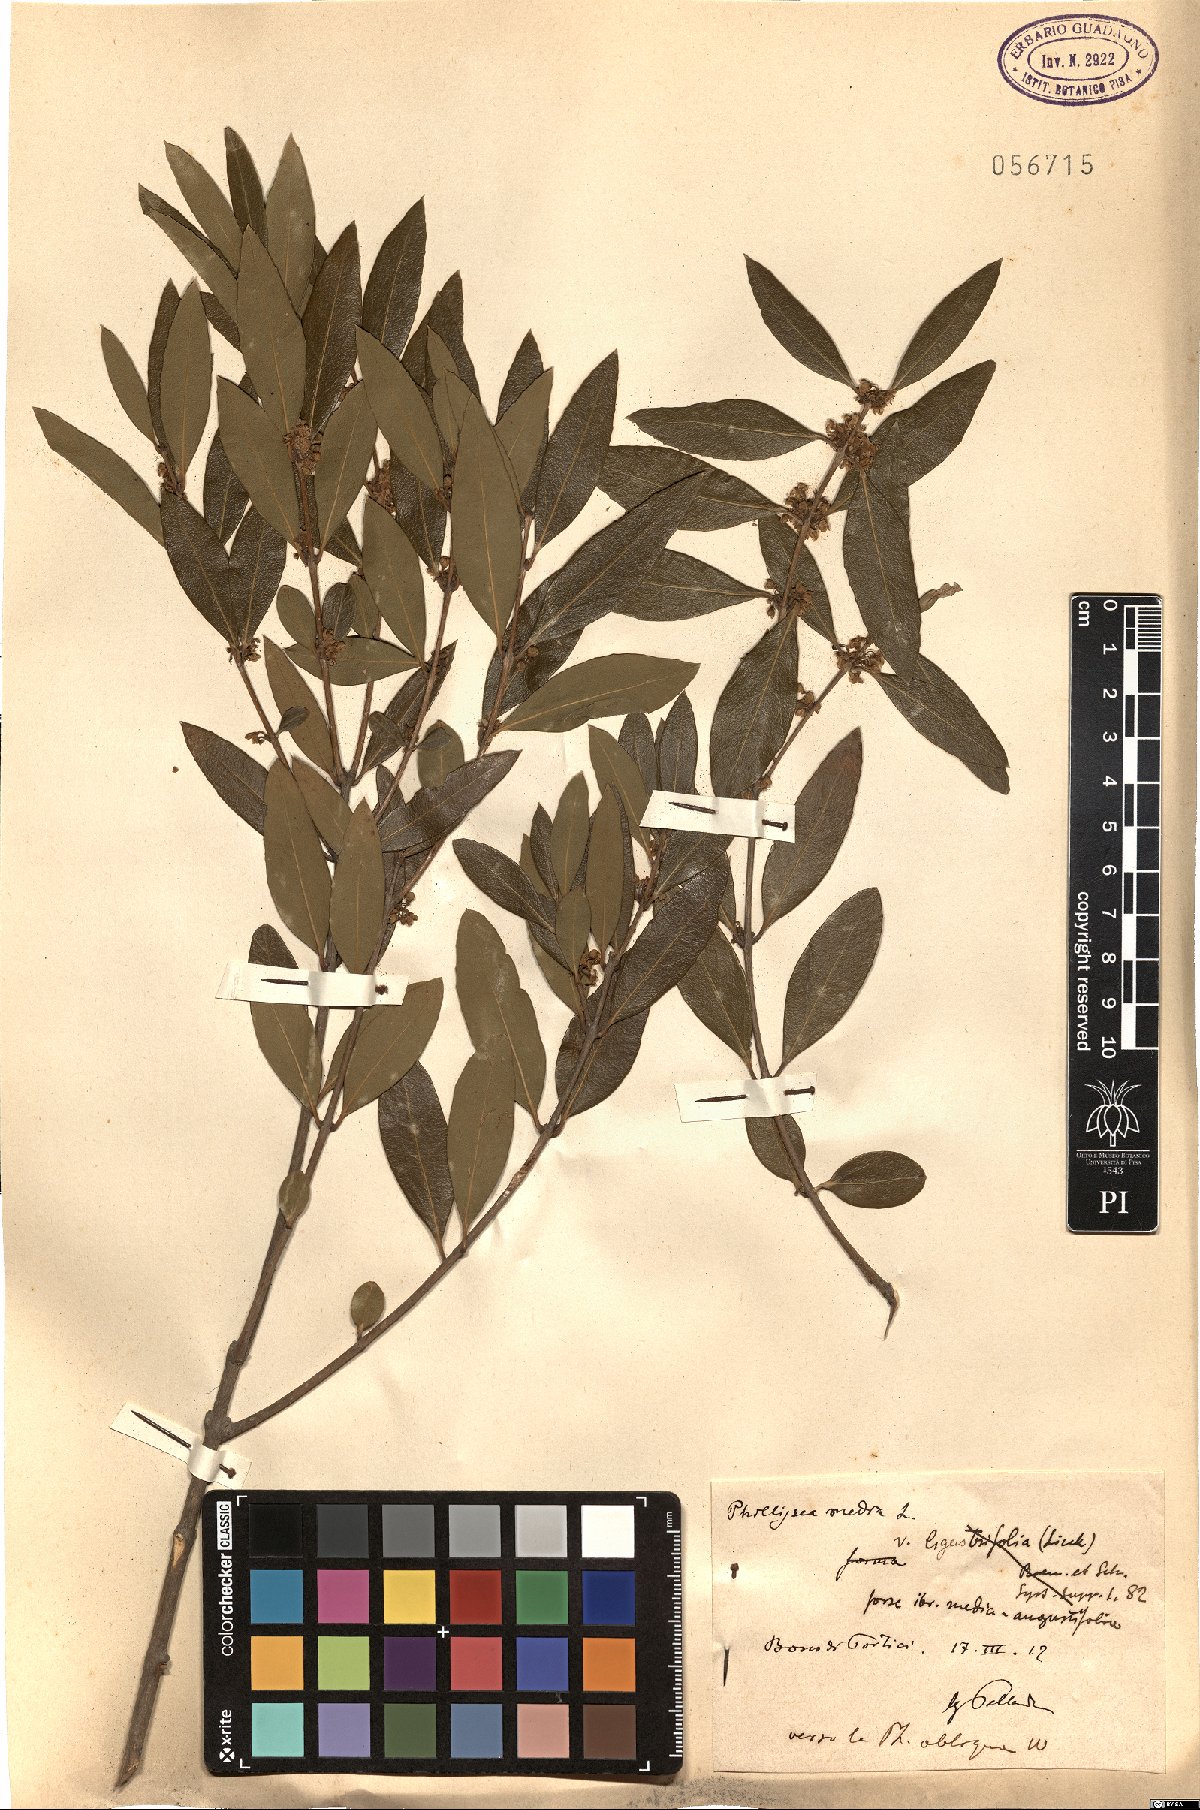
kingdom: Plantae
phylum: Tracheophyta
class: Magnoliopsida
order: Lamiales
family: Oleaceae
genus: Phillyrea
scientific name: Phillyrea latifolia
